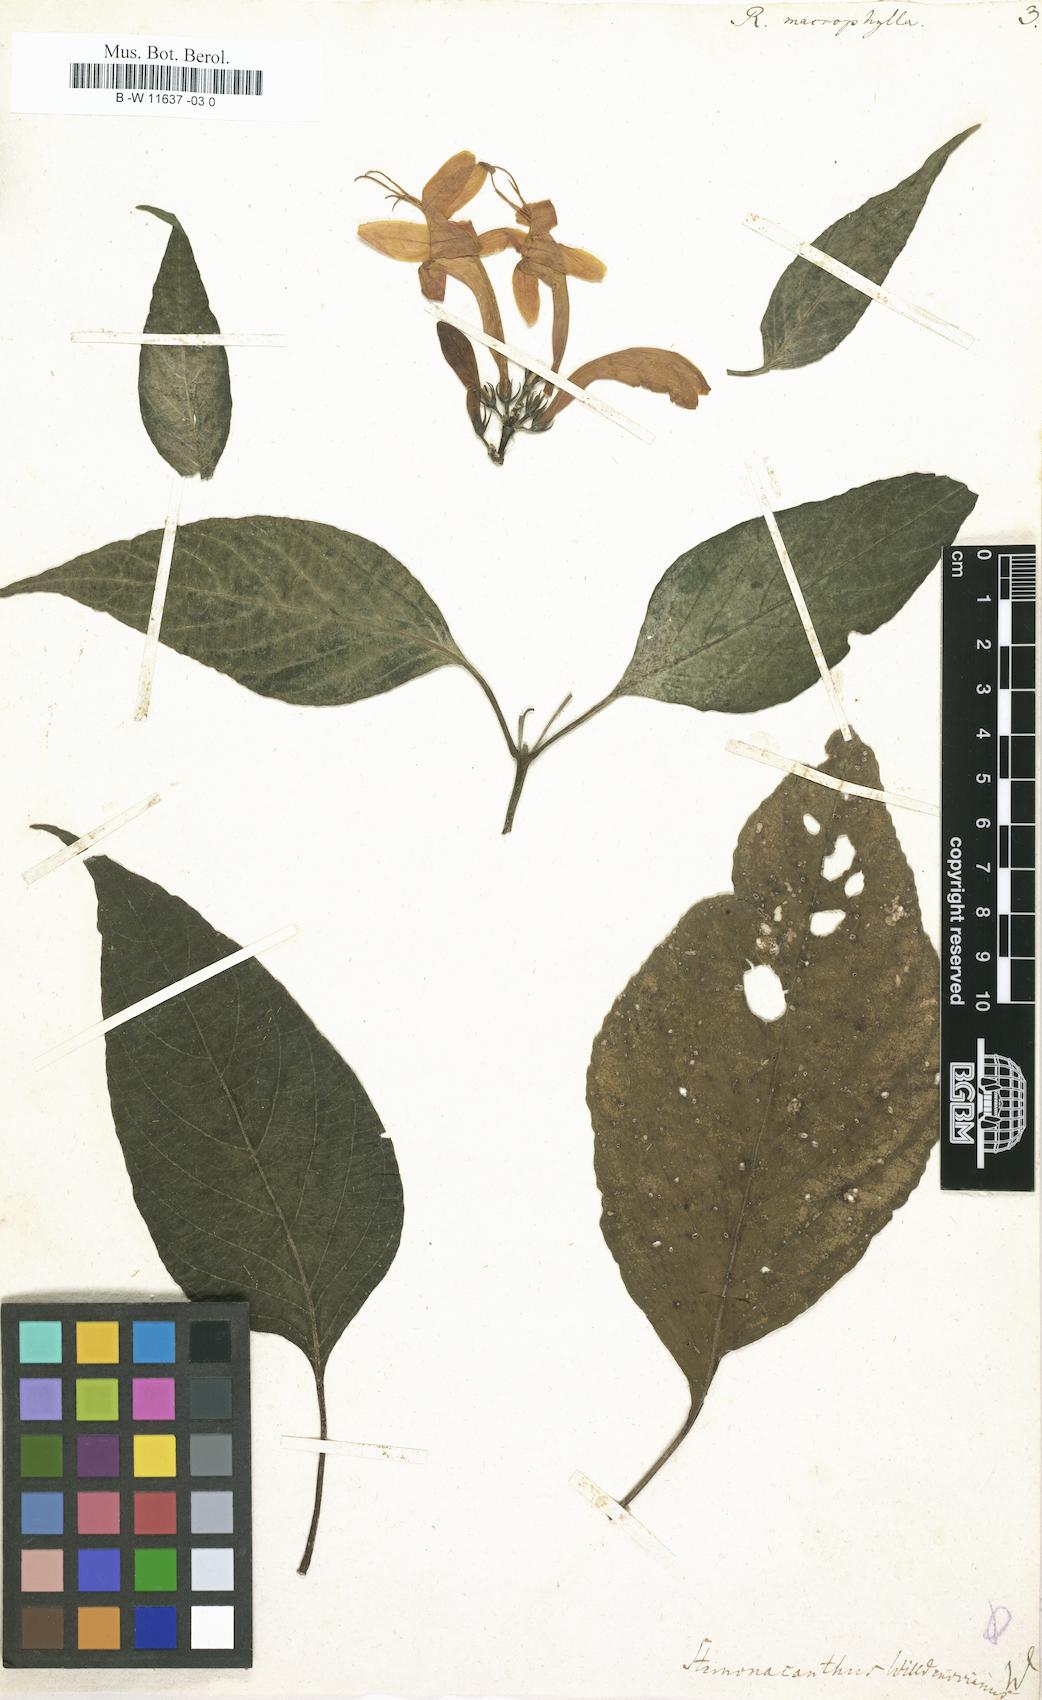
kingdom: Plantae
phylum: Tracheophyta
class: Magnoliopsida
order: Lamiales
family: Acanthaceae
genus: Ruellia
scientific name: Ruellia macrophylla
